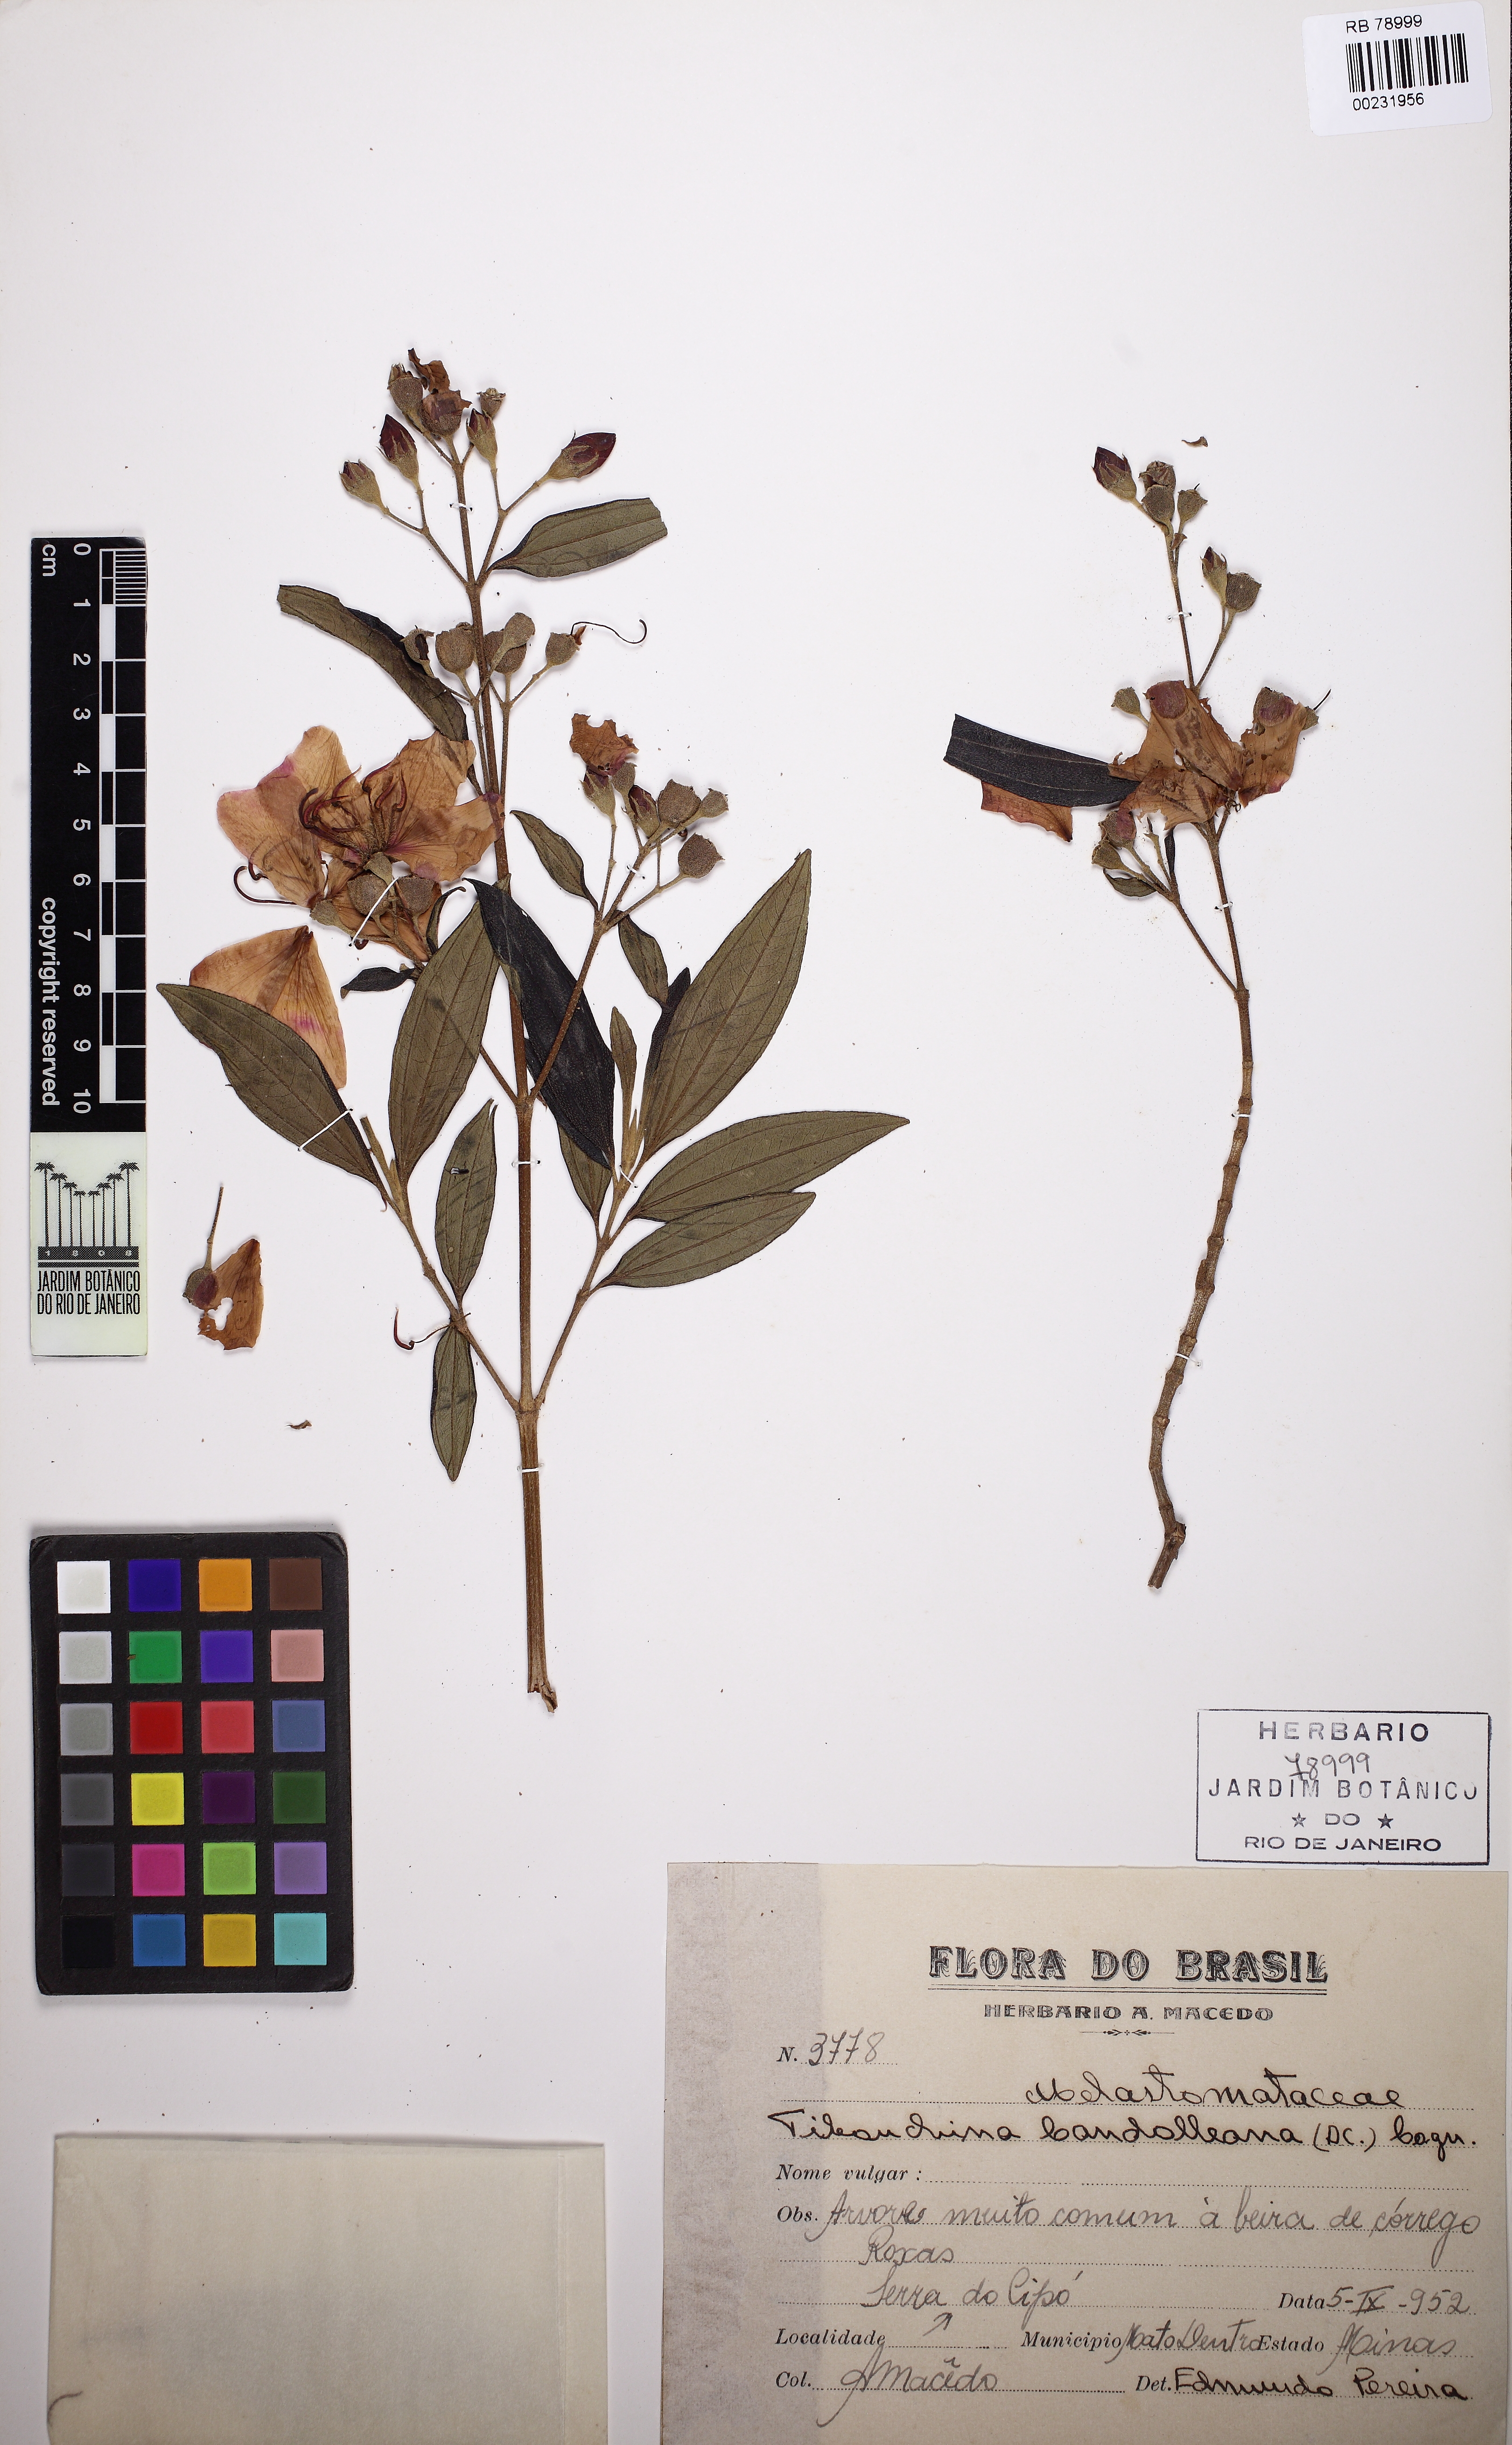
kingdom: Plantae
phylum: Tracheophyta
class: Magnoliopsida
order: Myrtales
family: Melastomataceae
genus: Pleroma
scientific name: Pleroma candolleanum
